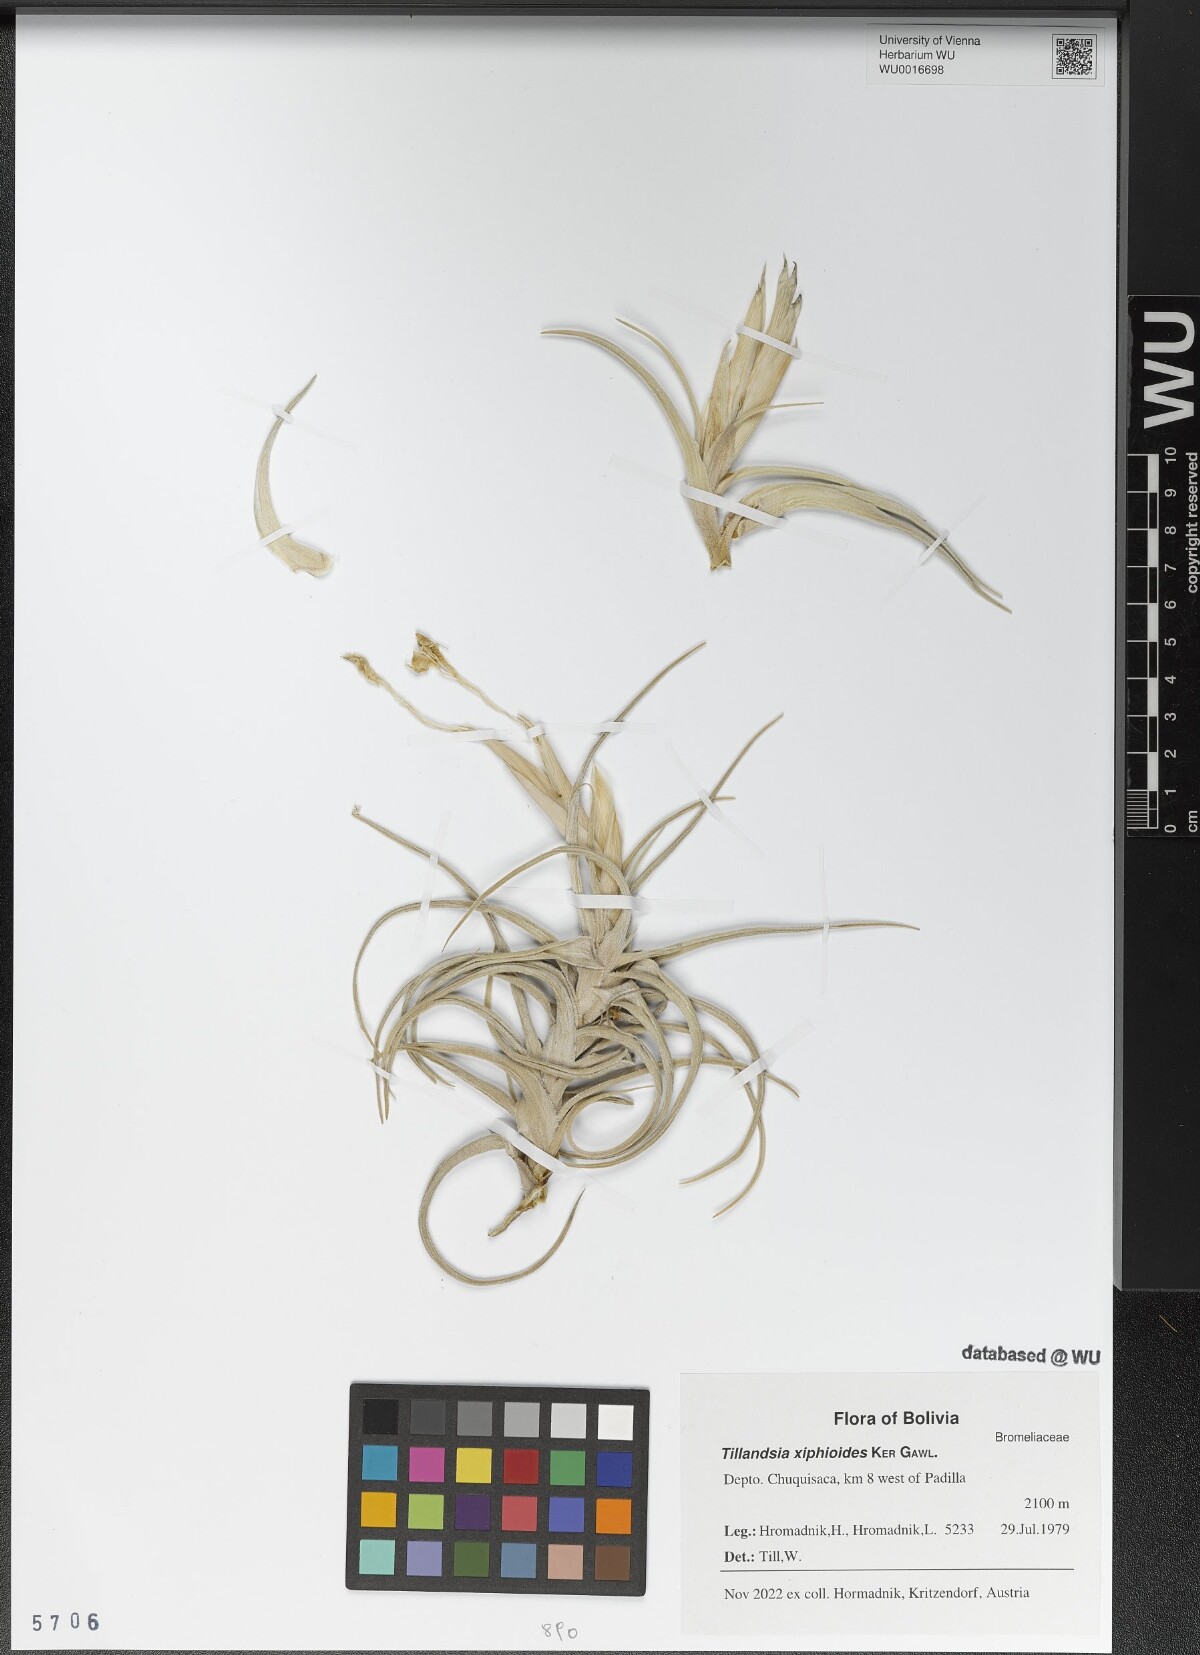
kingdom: Plantae
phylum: Tracheophyta
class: Liliopsida
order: Poales
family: Bromeliaceae
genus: Tillandsia
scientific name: Tillandsia xiphioides
